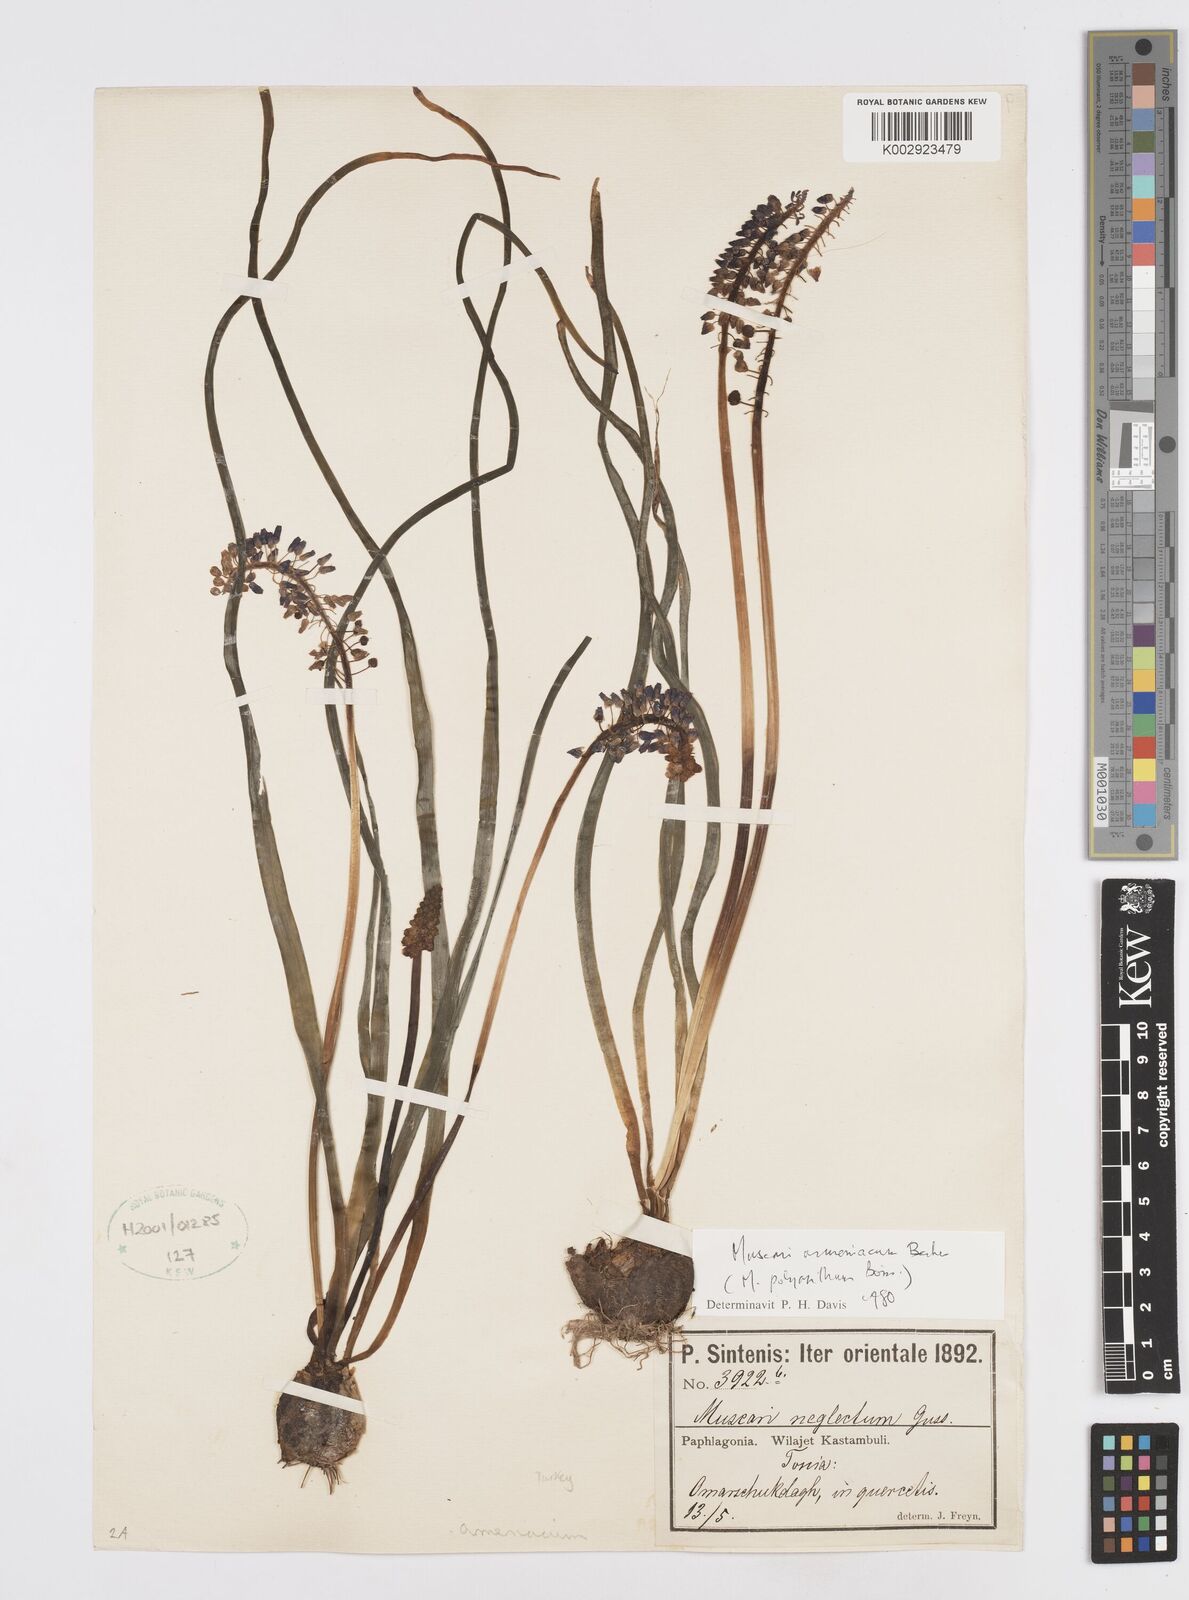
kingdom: Plantae
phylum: Tracheophyta
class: Liliopsida
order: Asparagales
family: Asparagaceae
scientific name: Asparagaceae
